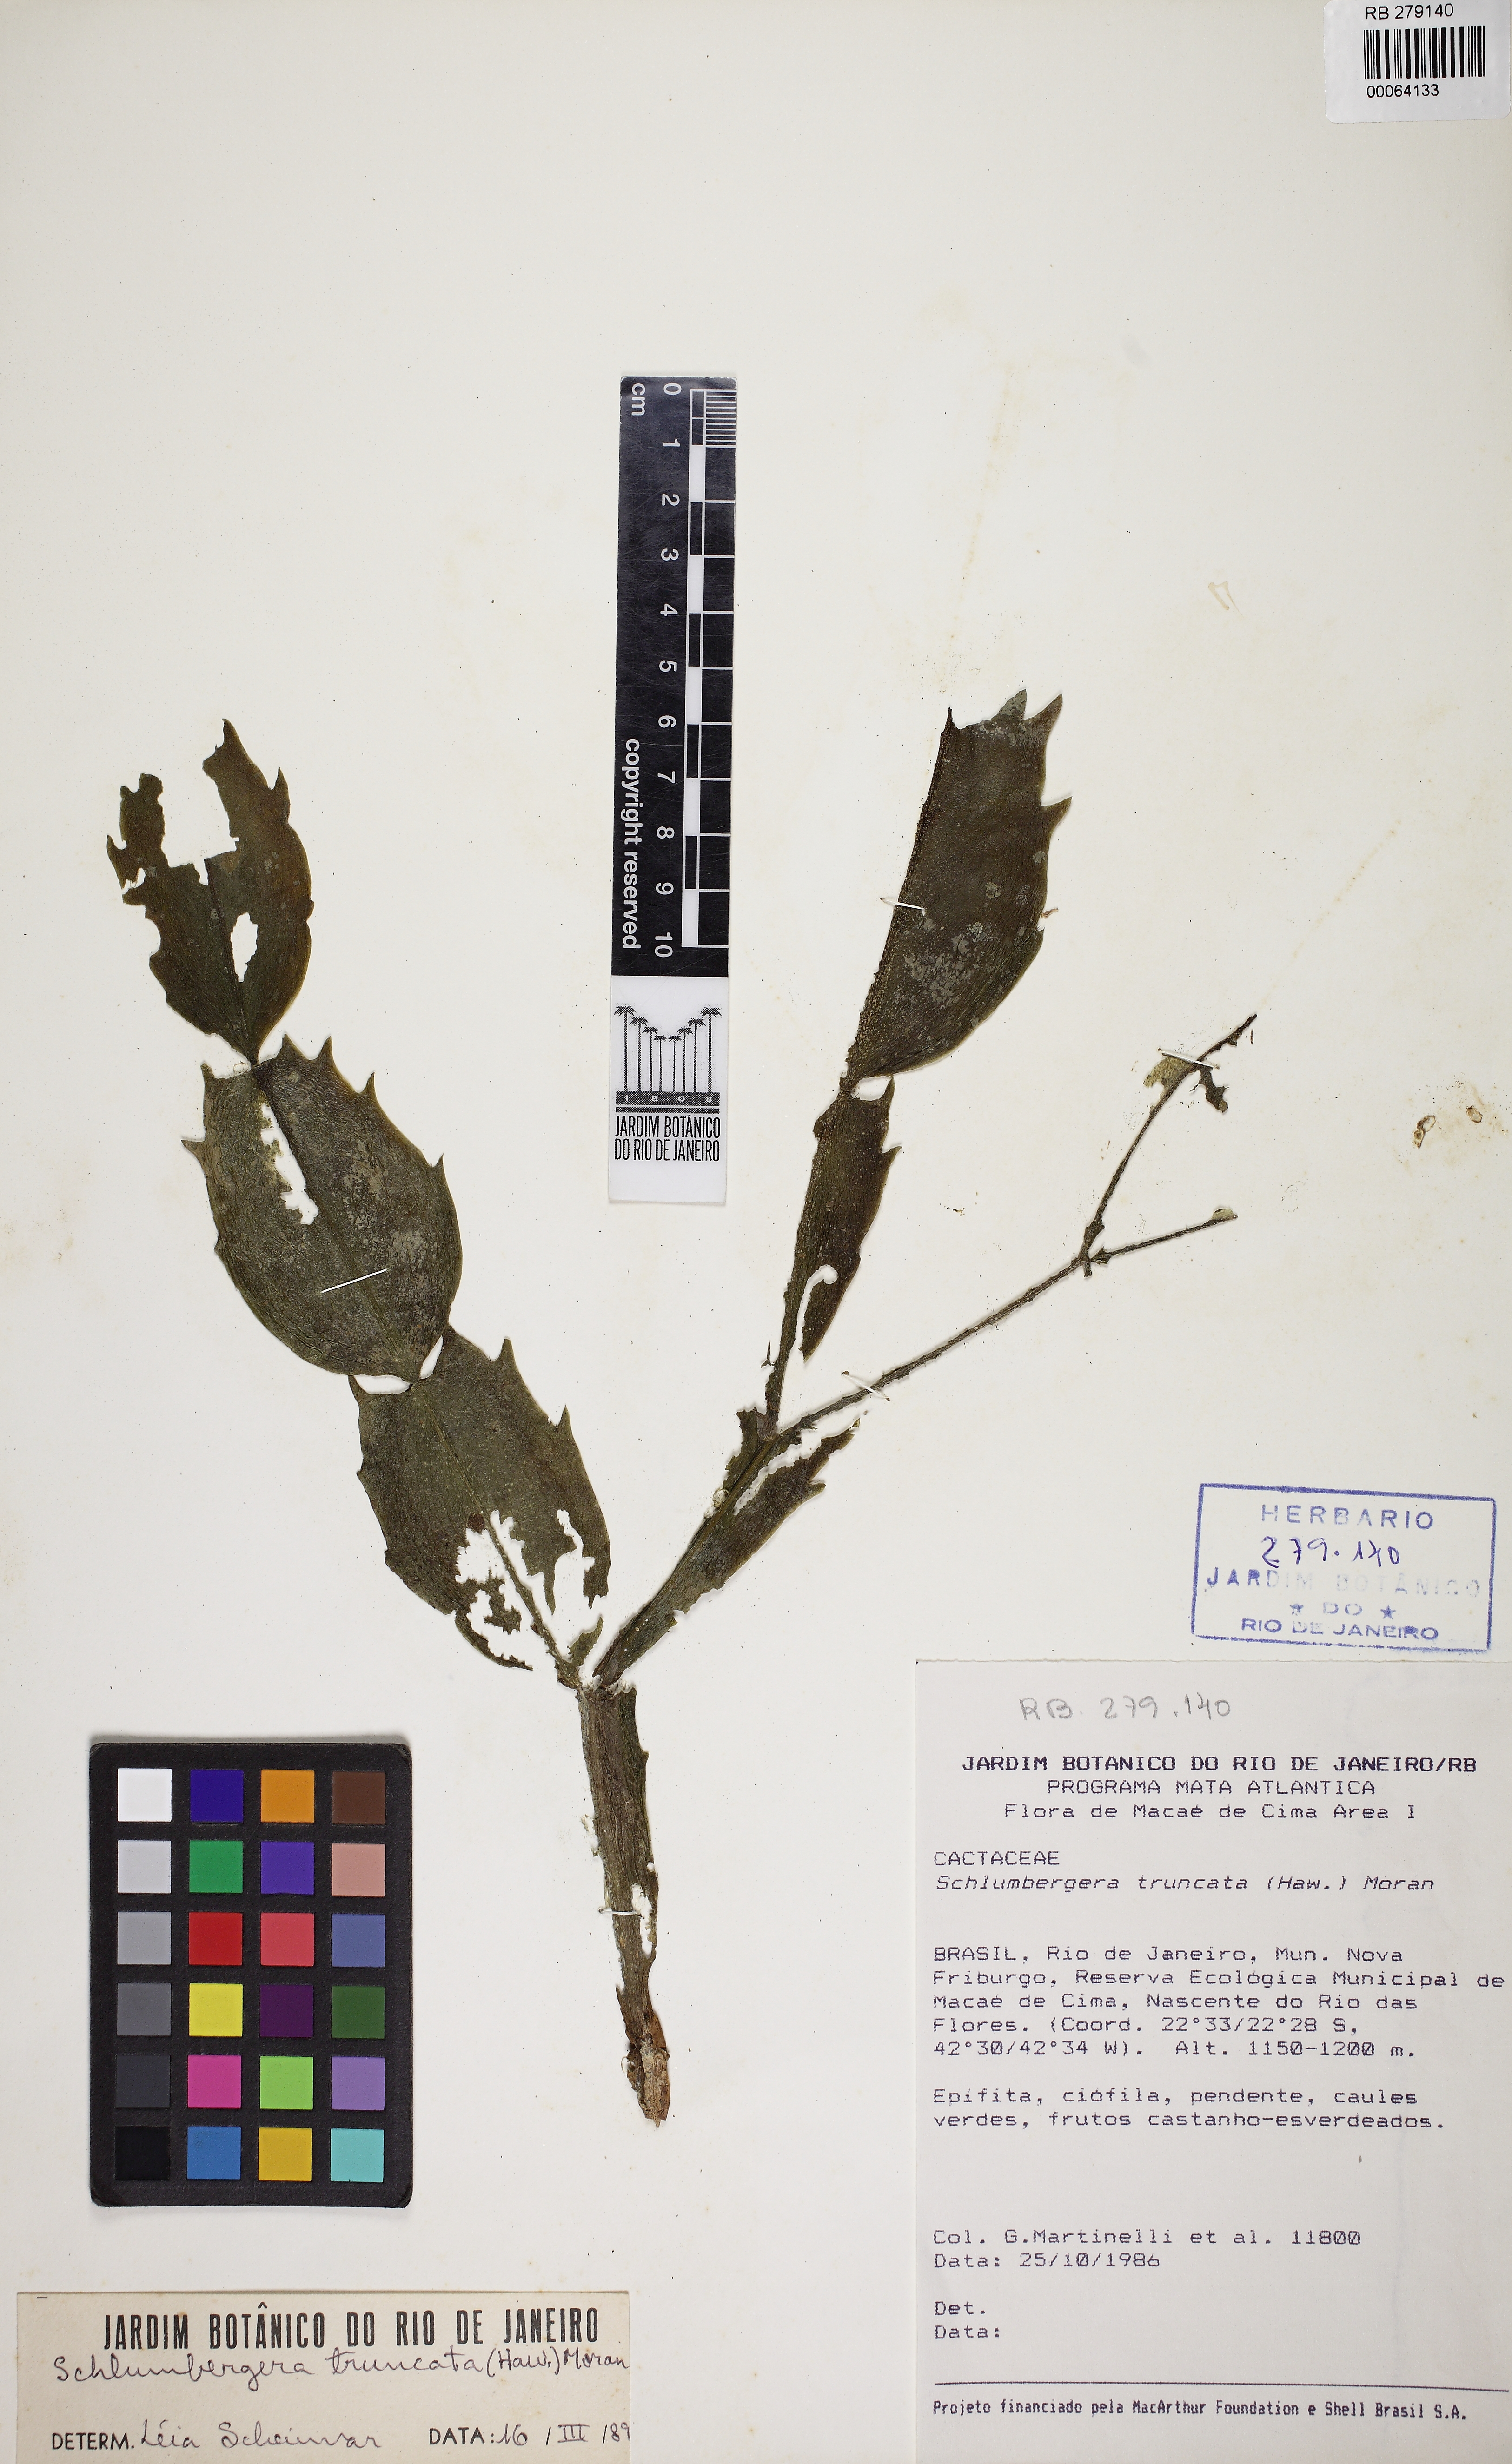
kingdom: Plantae
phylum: Tracheophyta
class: Magnoliopsida
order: Caryophyllales
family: Cactaceae
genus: Schlumbergera
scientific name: Schlumbergera russeliana
